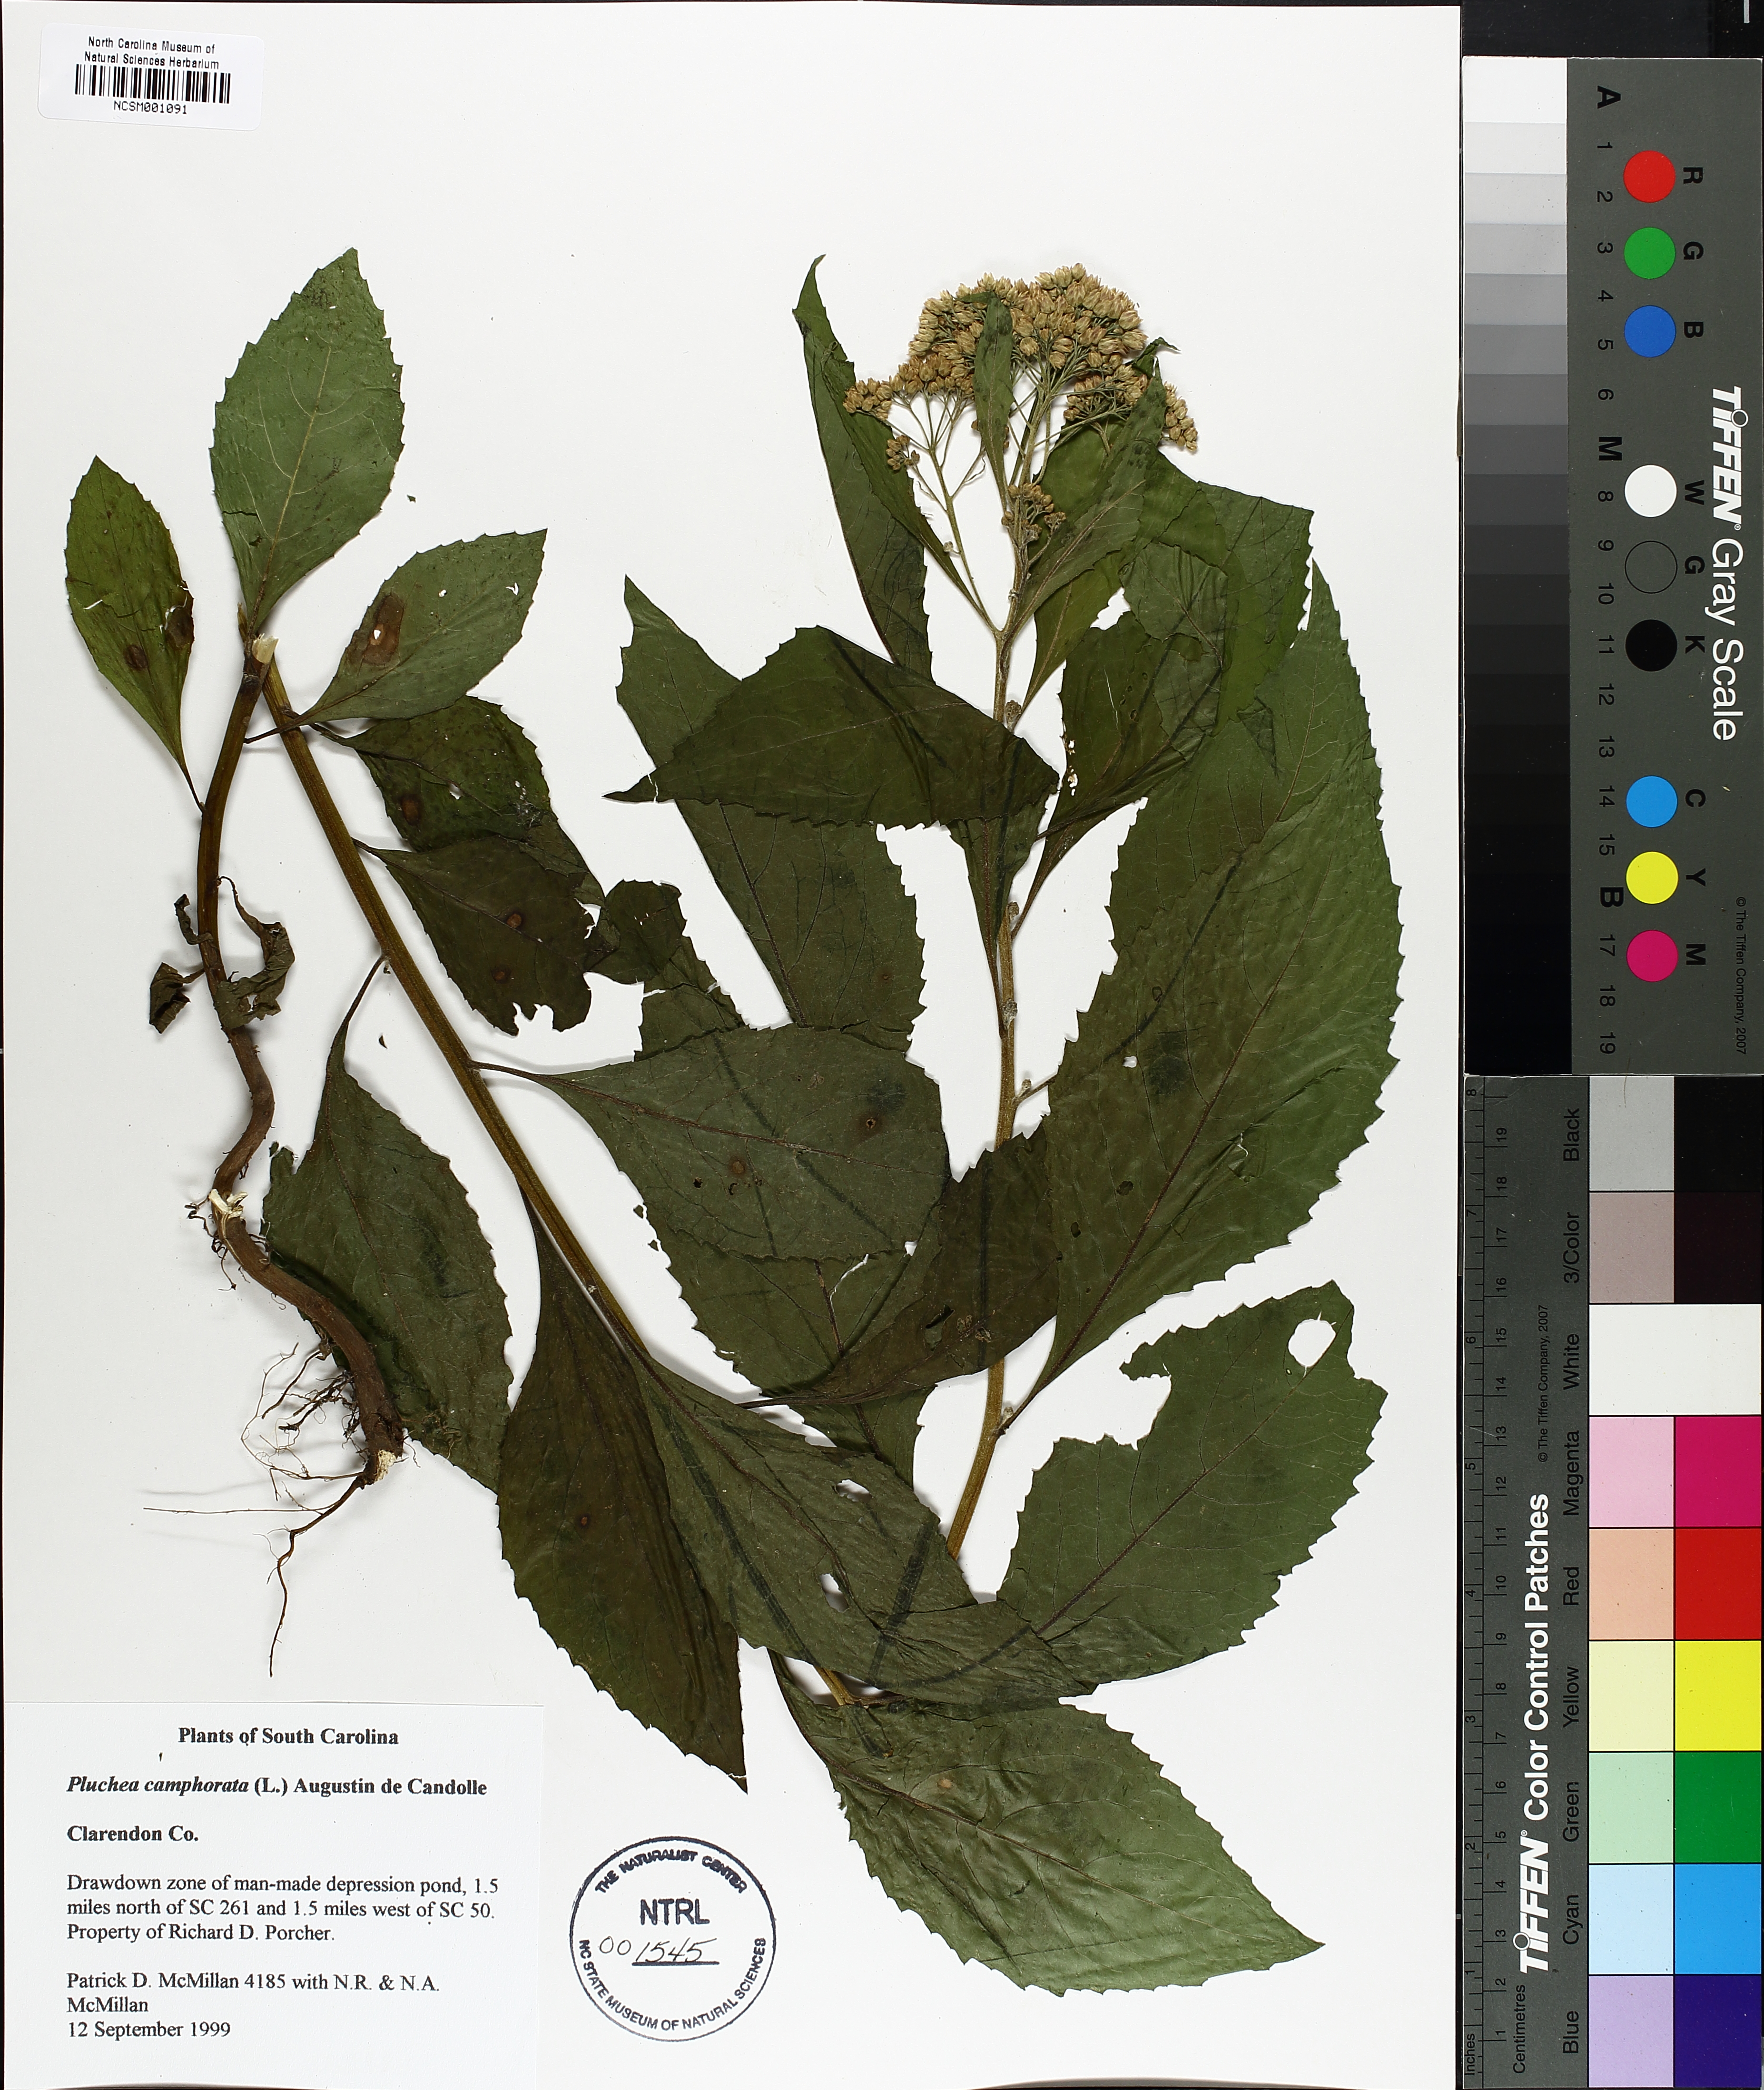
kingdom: Plantae
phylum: Tracheophyta
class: Magnoliopsida
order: Asterales
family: Asteraceae
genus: Pluchea
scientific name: Pluchea camphorata
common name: Camphor pluchea
